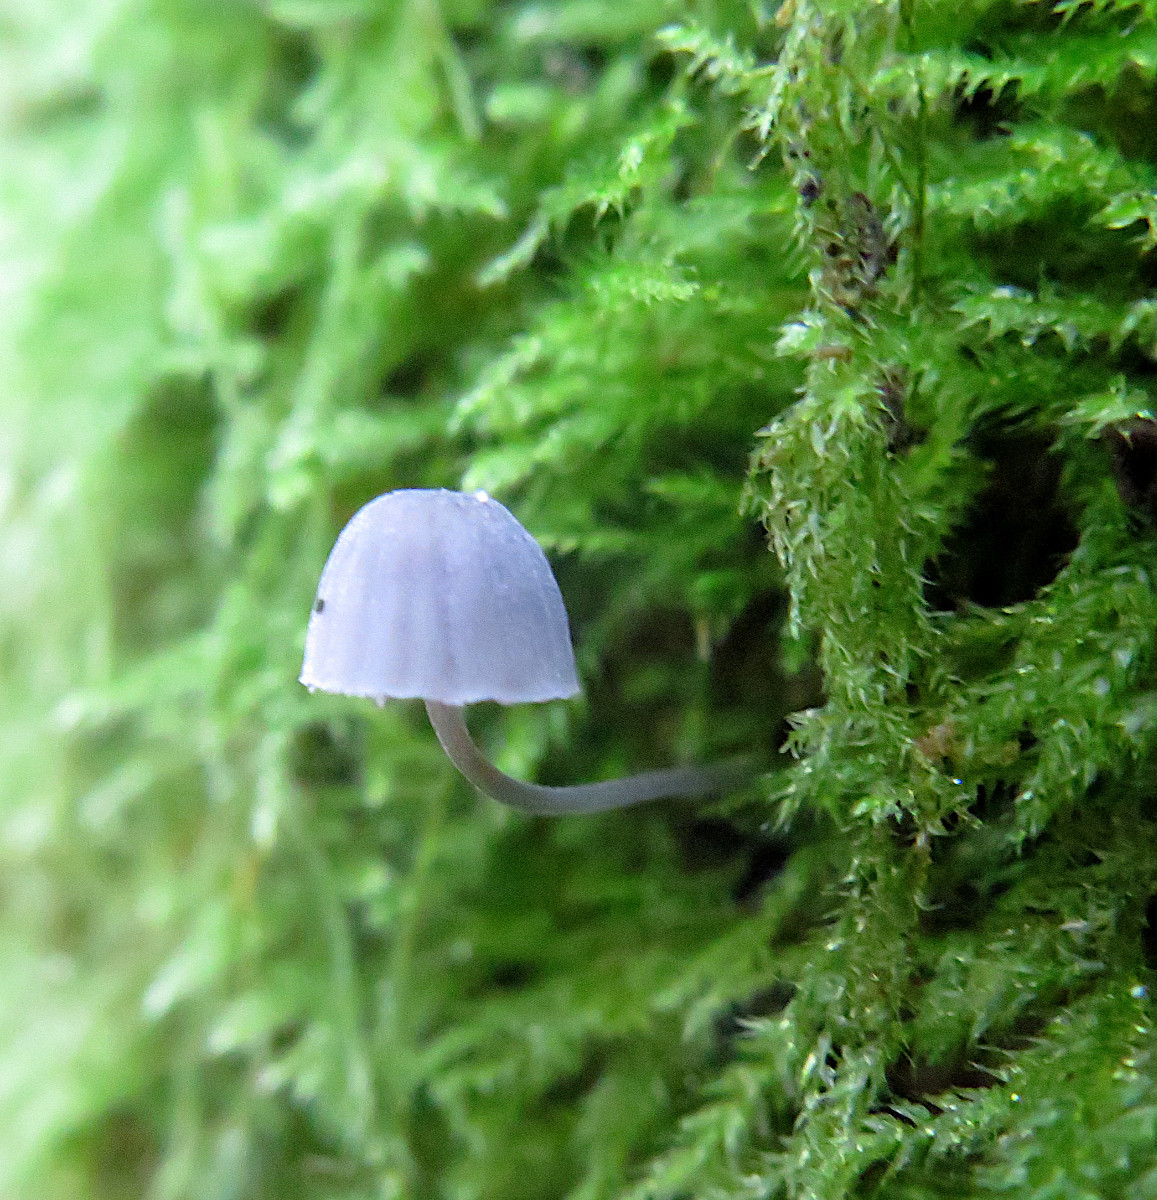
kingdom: Fungi
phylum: Basidiomycota
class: Agaricomycetes
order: Agaricales
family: Mycenaceae
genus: Mycena
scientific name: Mycena pseudocorticola
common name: gråblå bark-huesvamp
